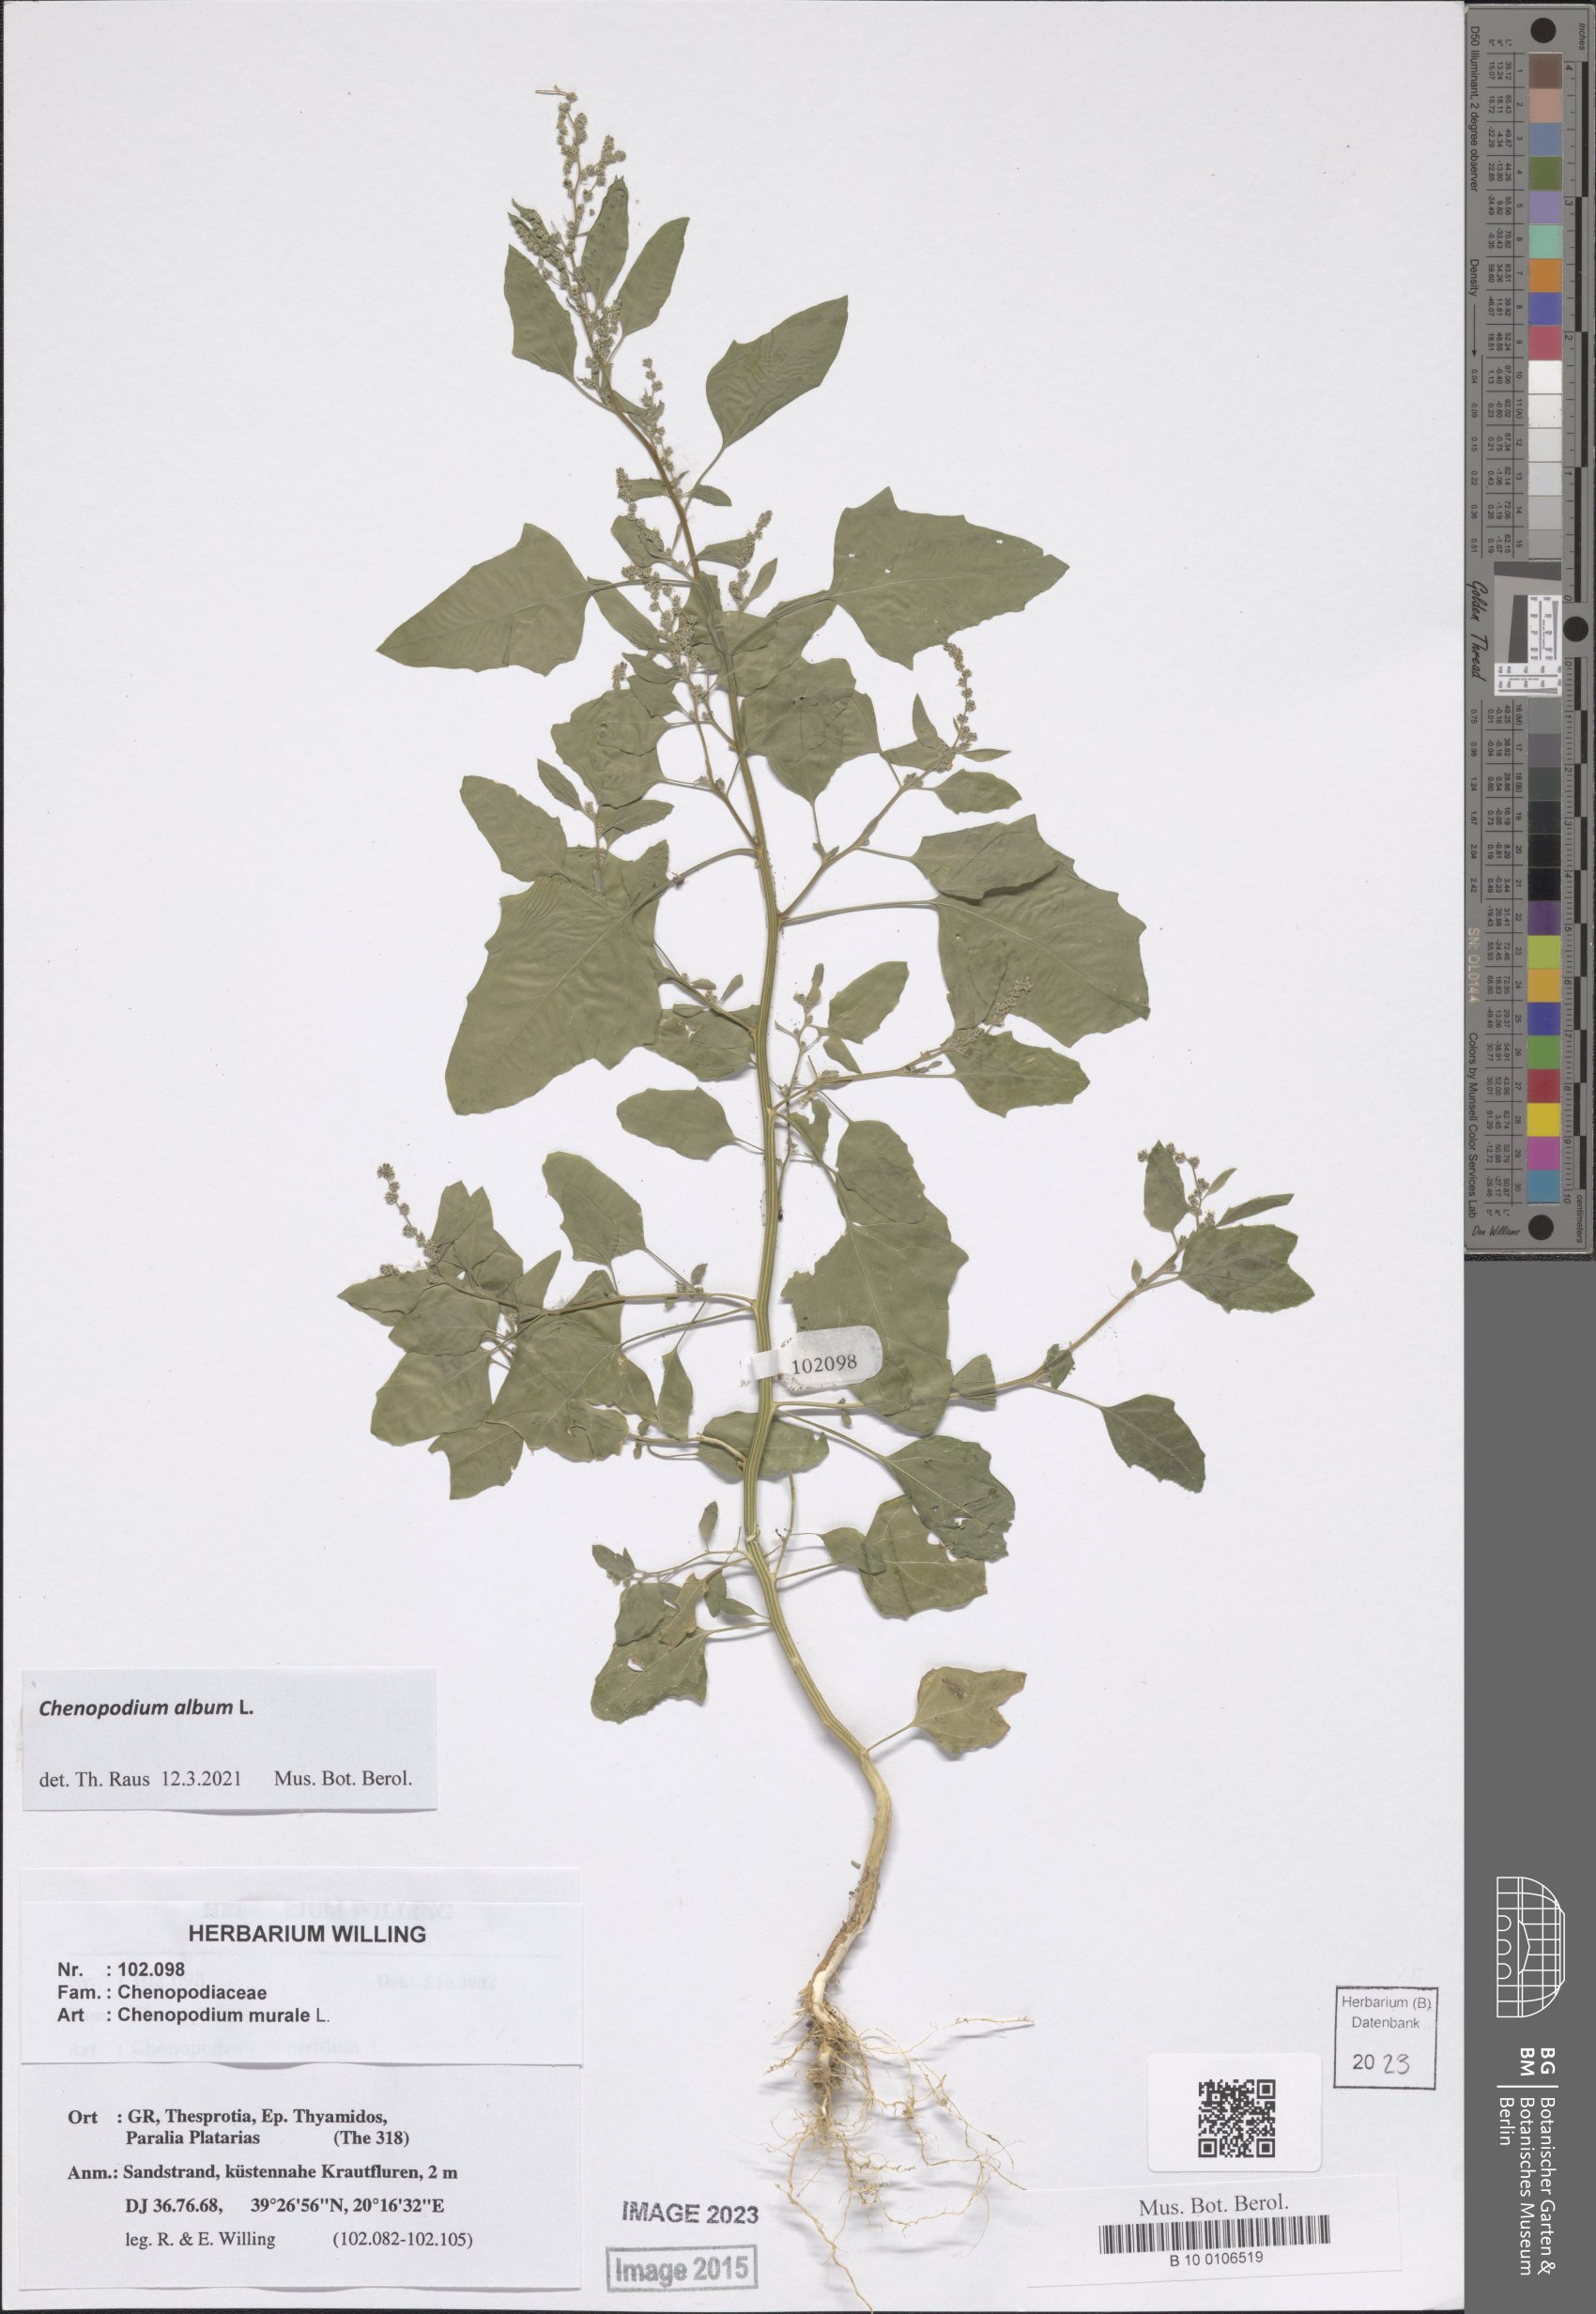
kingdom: Plantae
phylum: Tracheophyta
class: Magnoliopsida
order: Caryophyllales
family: Amaranthaceae
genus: Chenopodium
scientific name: Chenopodium album
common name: Fat-hen
